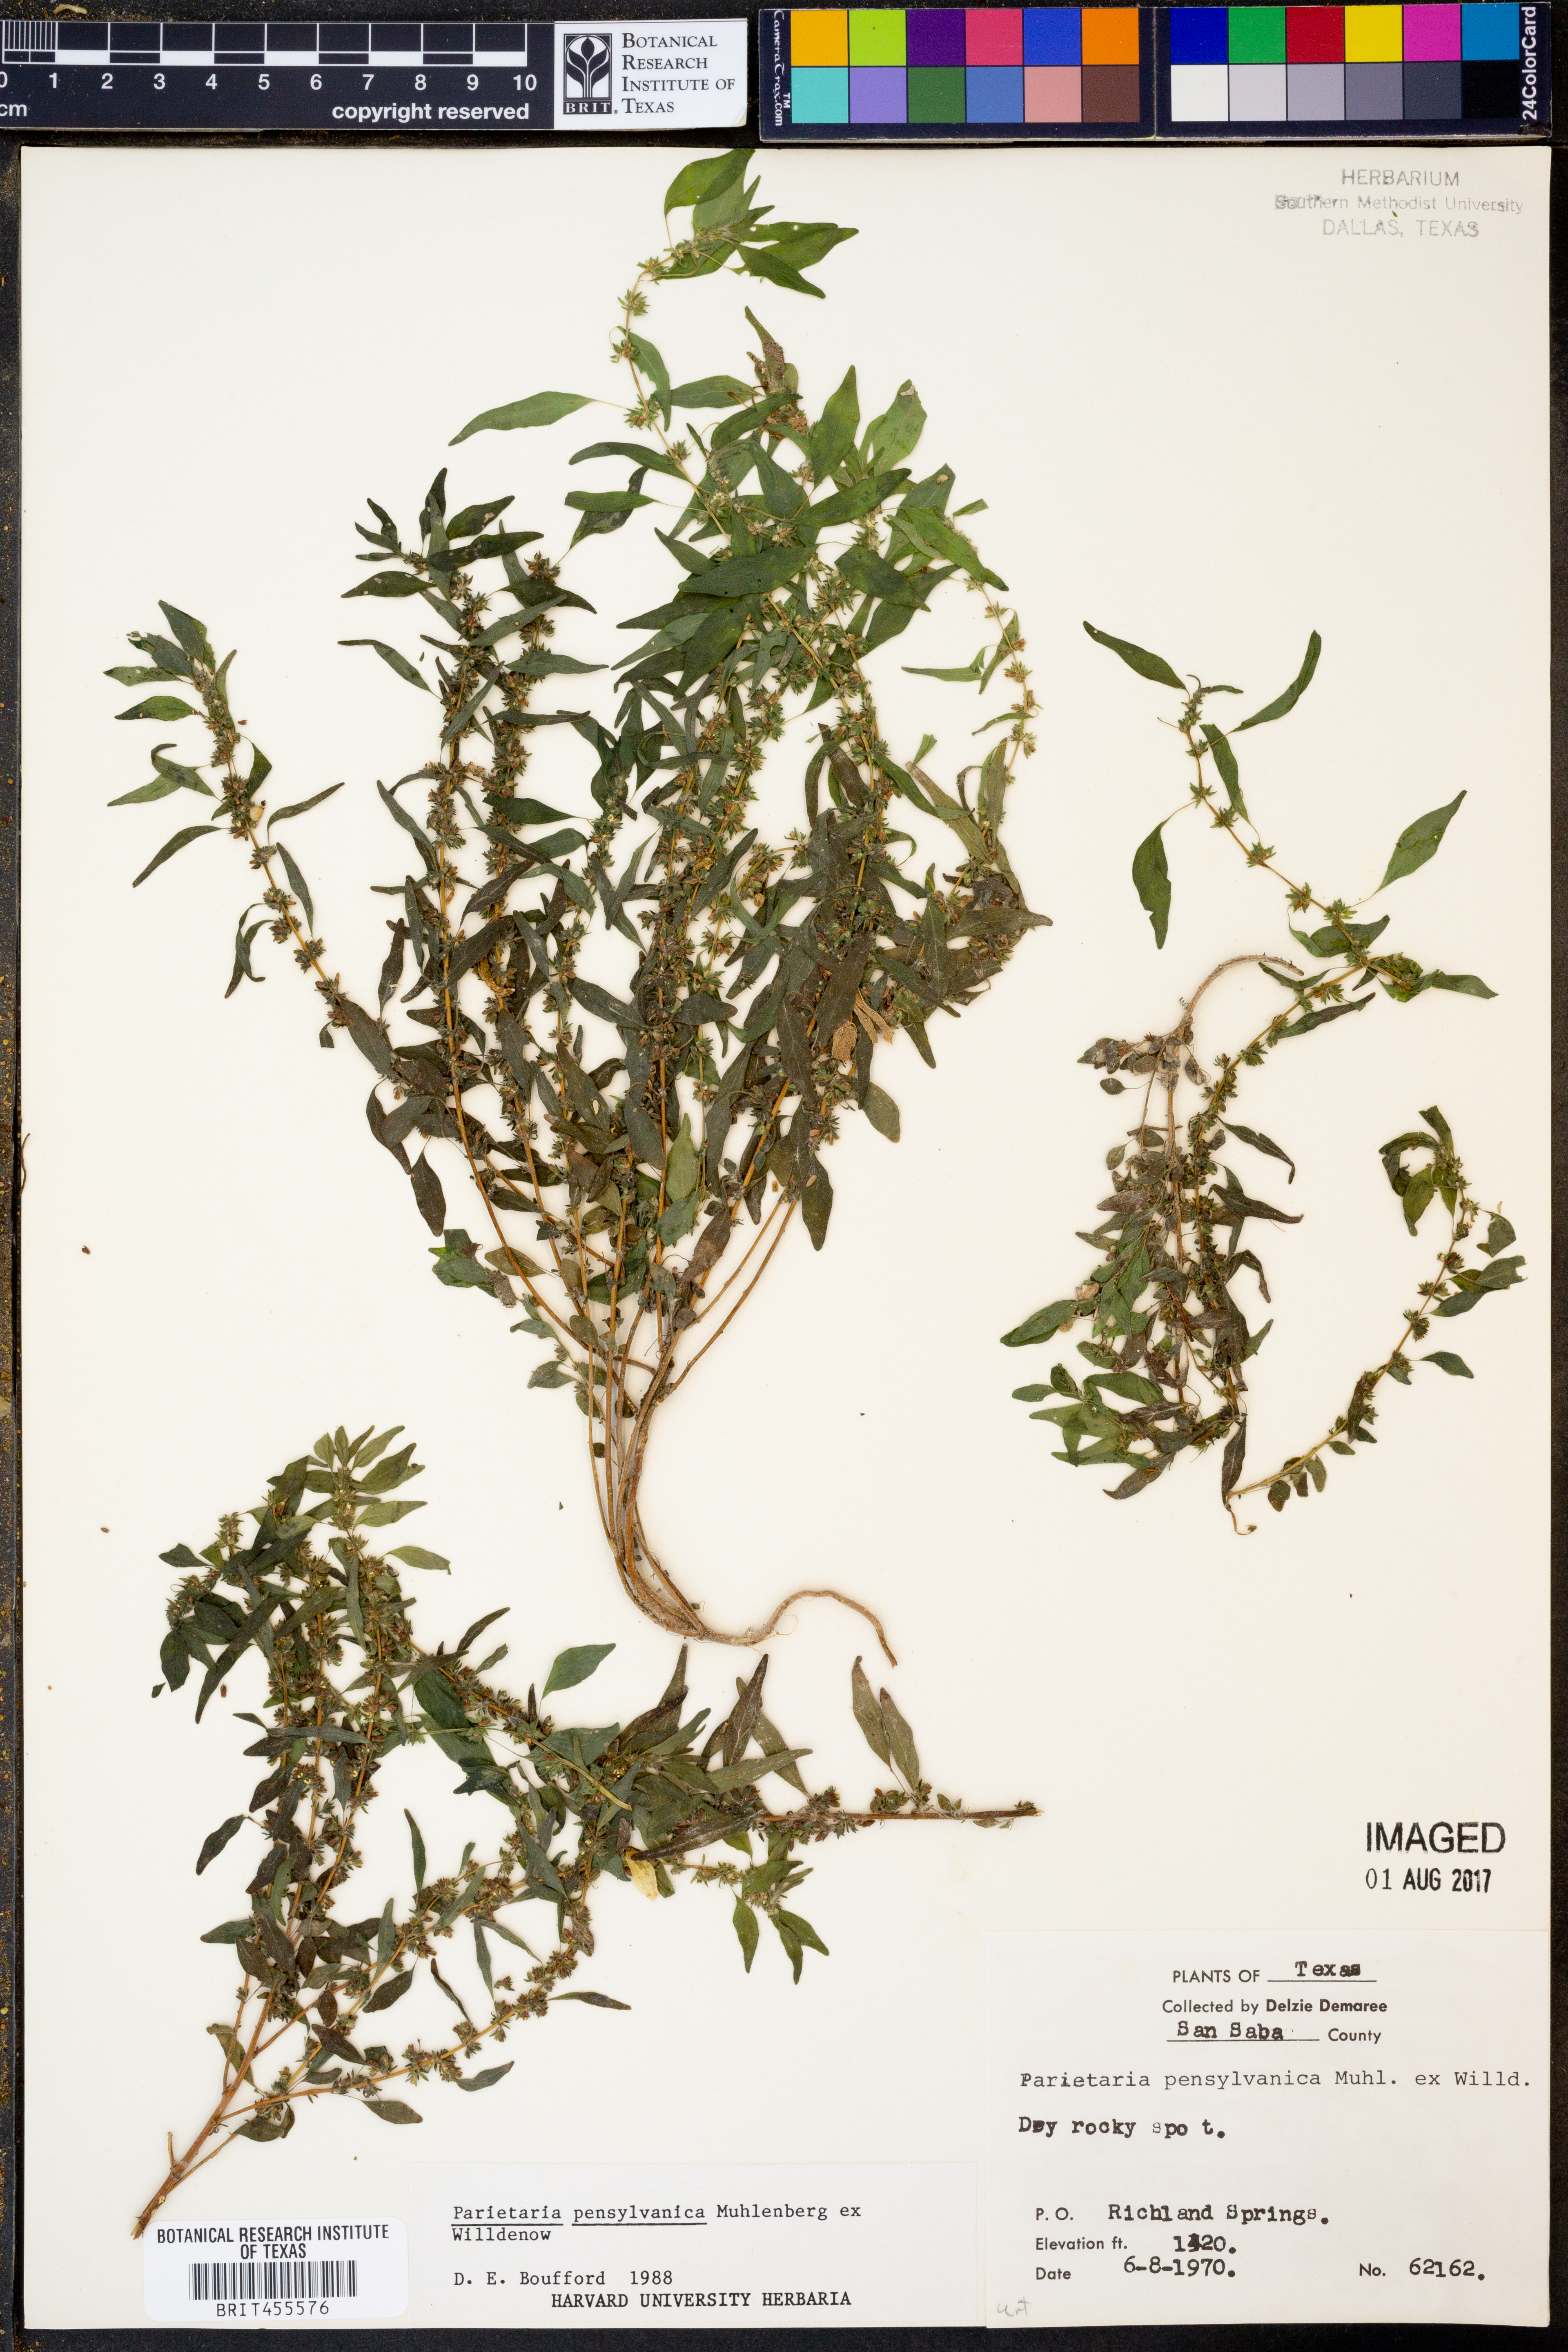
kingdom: Plantae
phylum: Tracheophyta
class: Magnoliopsida
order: Rosales
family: Urticaceae
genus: Parietaria
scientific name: Parietaria pensylvanica
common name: Pennsylvania pellitory
